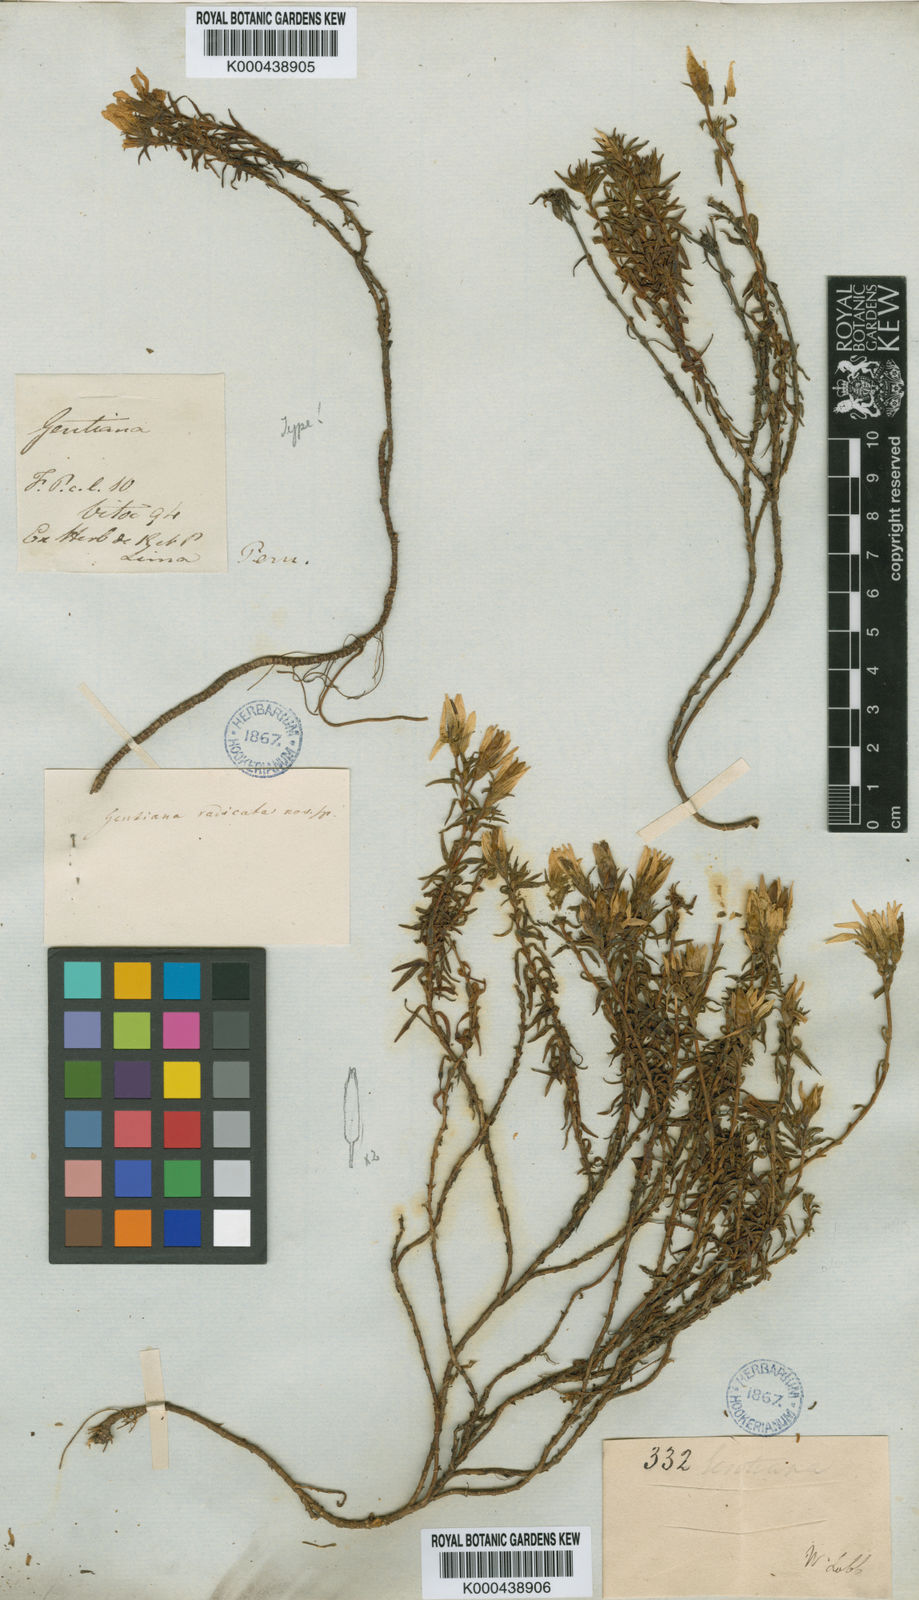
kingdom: Plantae
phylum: Tracheophyta
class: Magnoliopsida
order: Gentianales
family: Gentianaceae
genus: Gentianella
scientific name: Gentianella radicata
